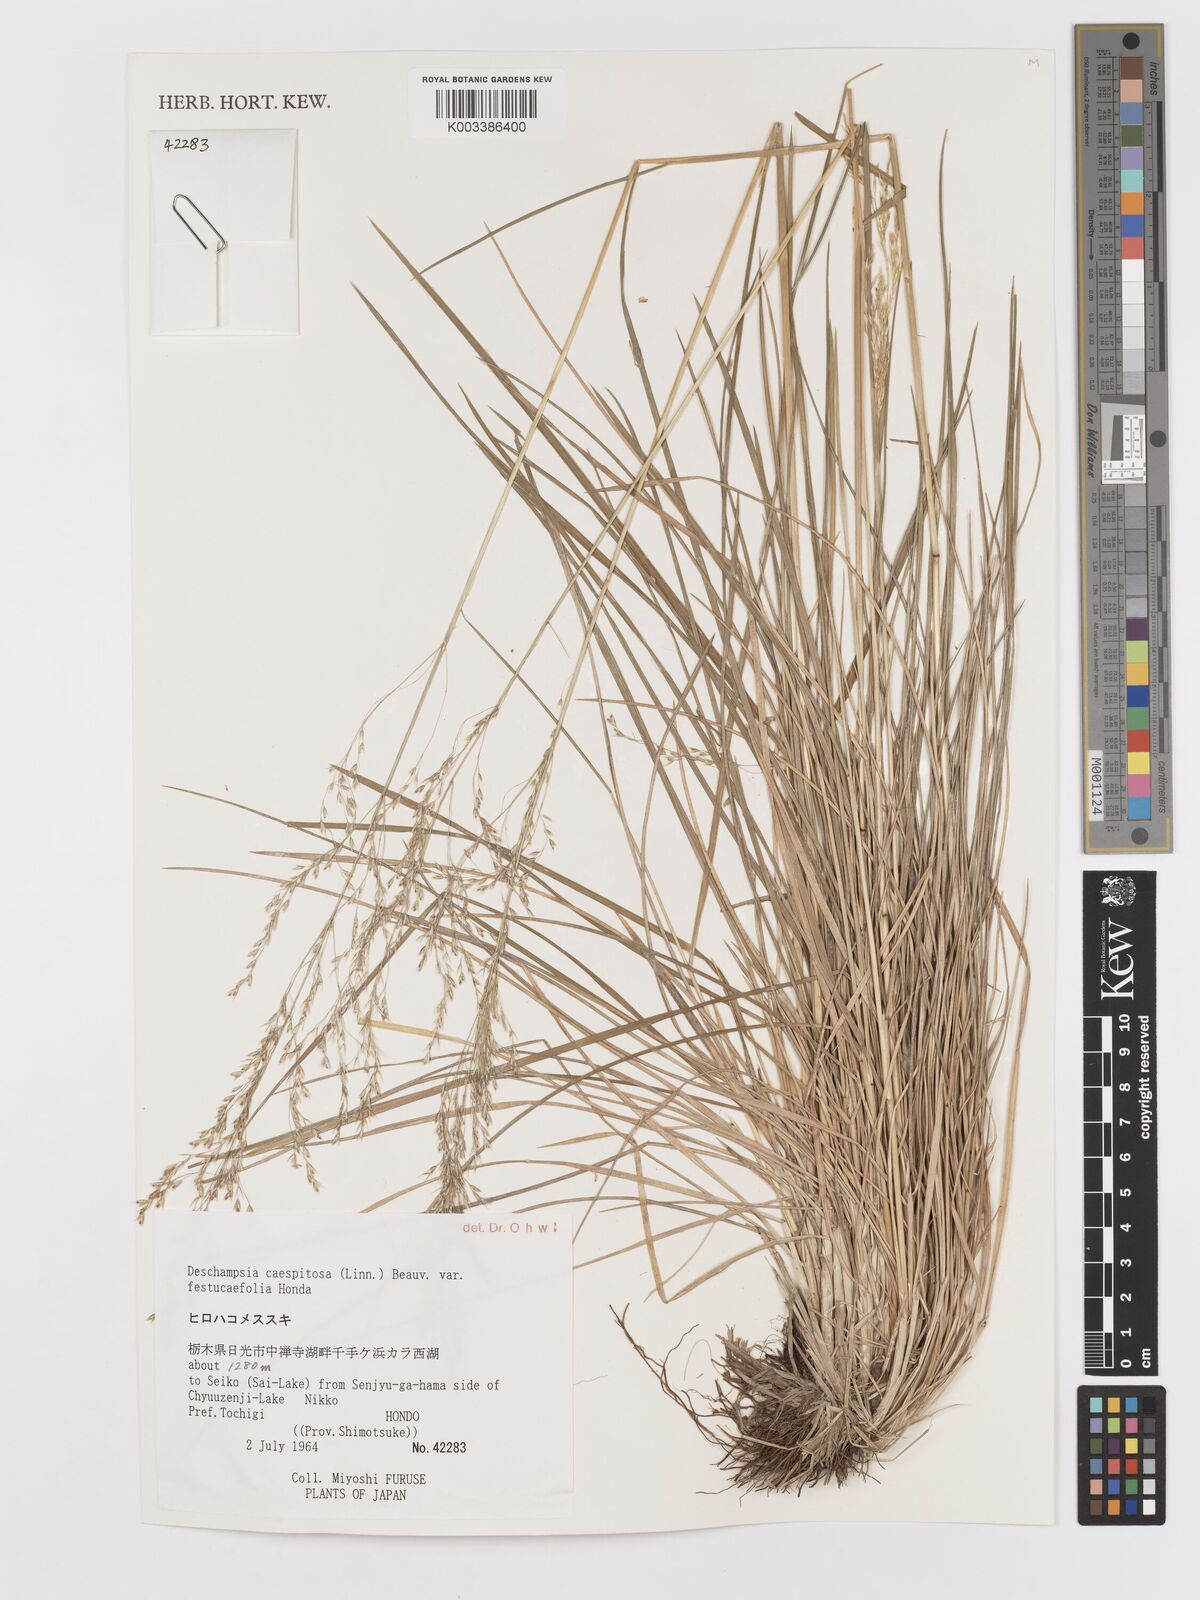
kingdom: Plantae
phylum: Tracheophyta
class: Liliopsida
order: Poales
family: Poaceae
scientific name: Poaceae
